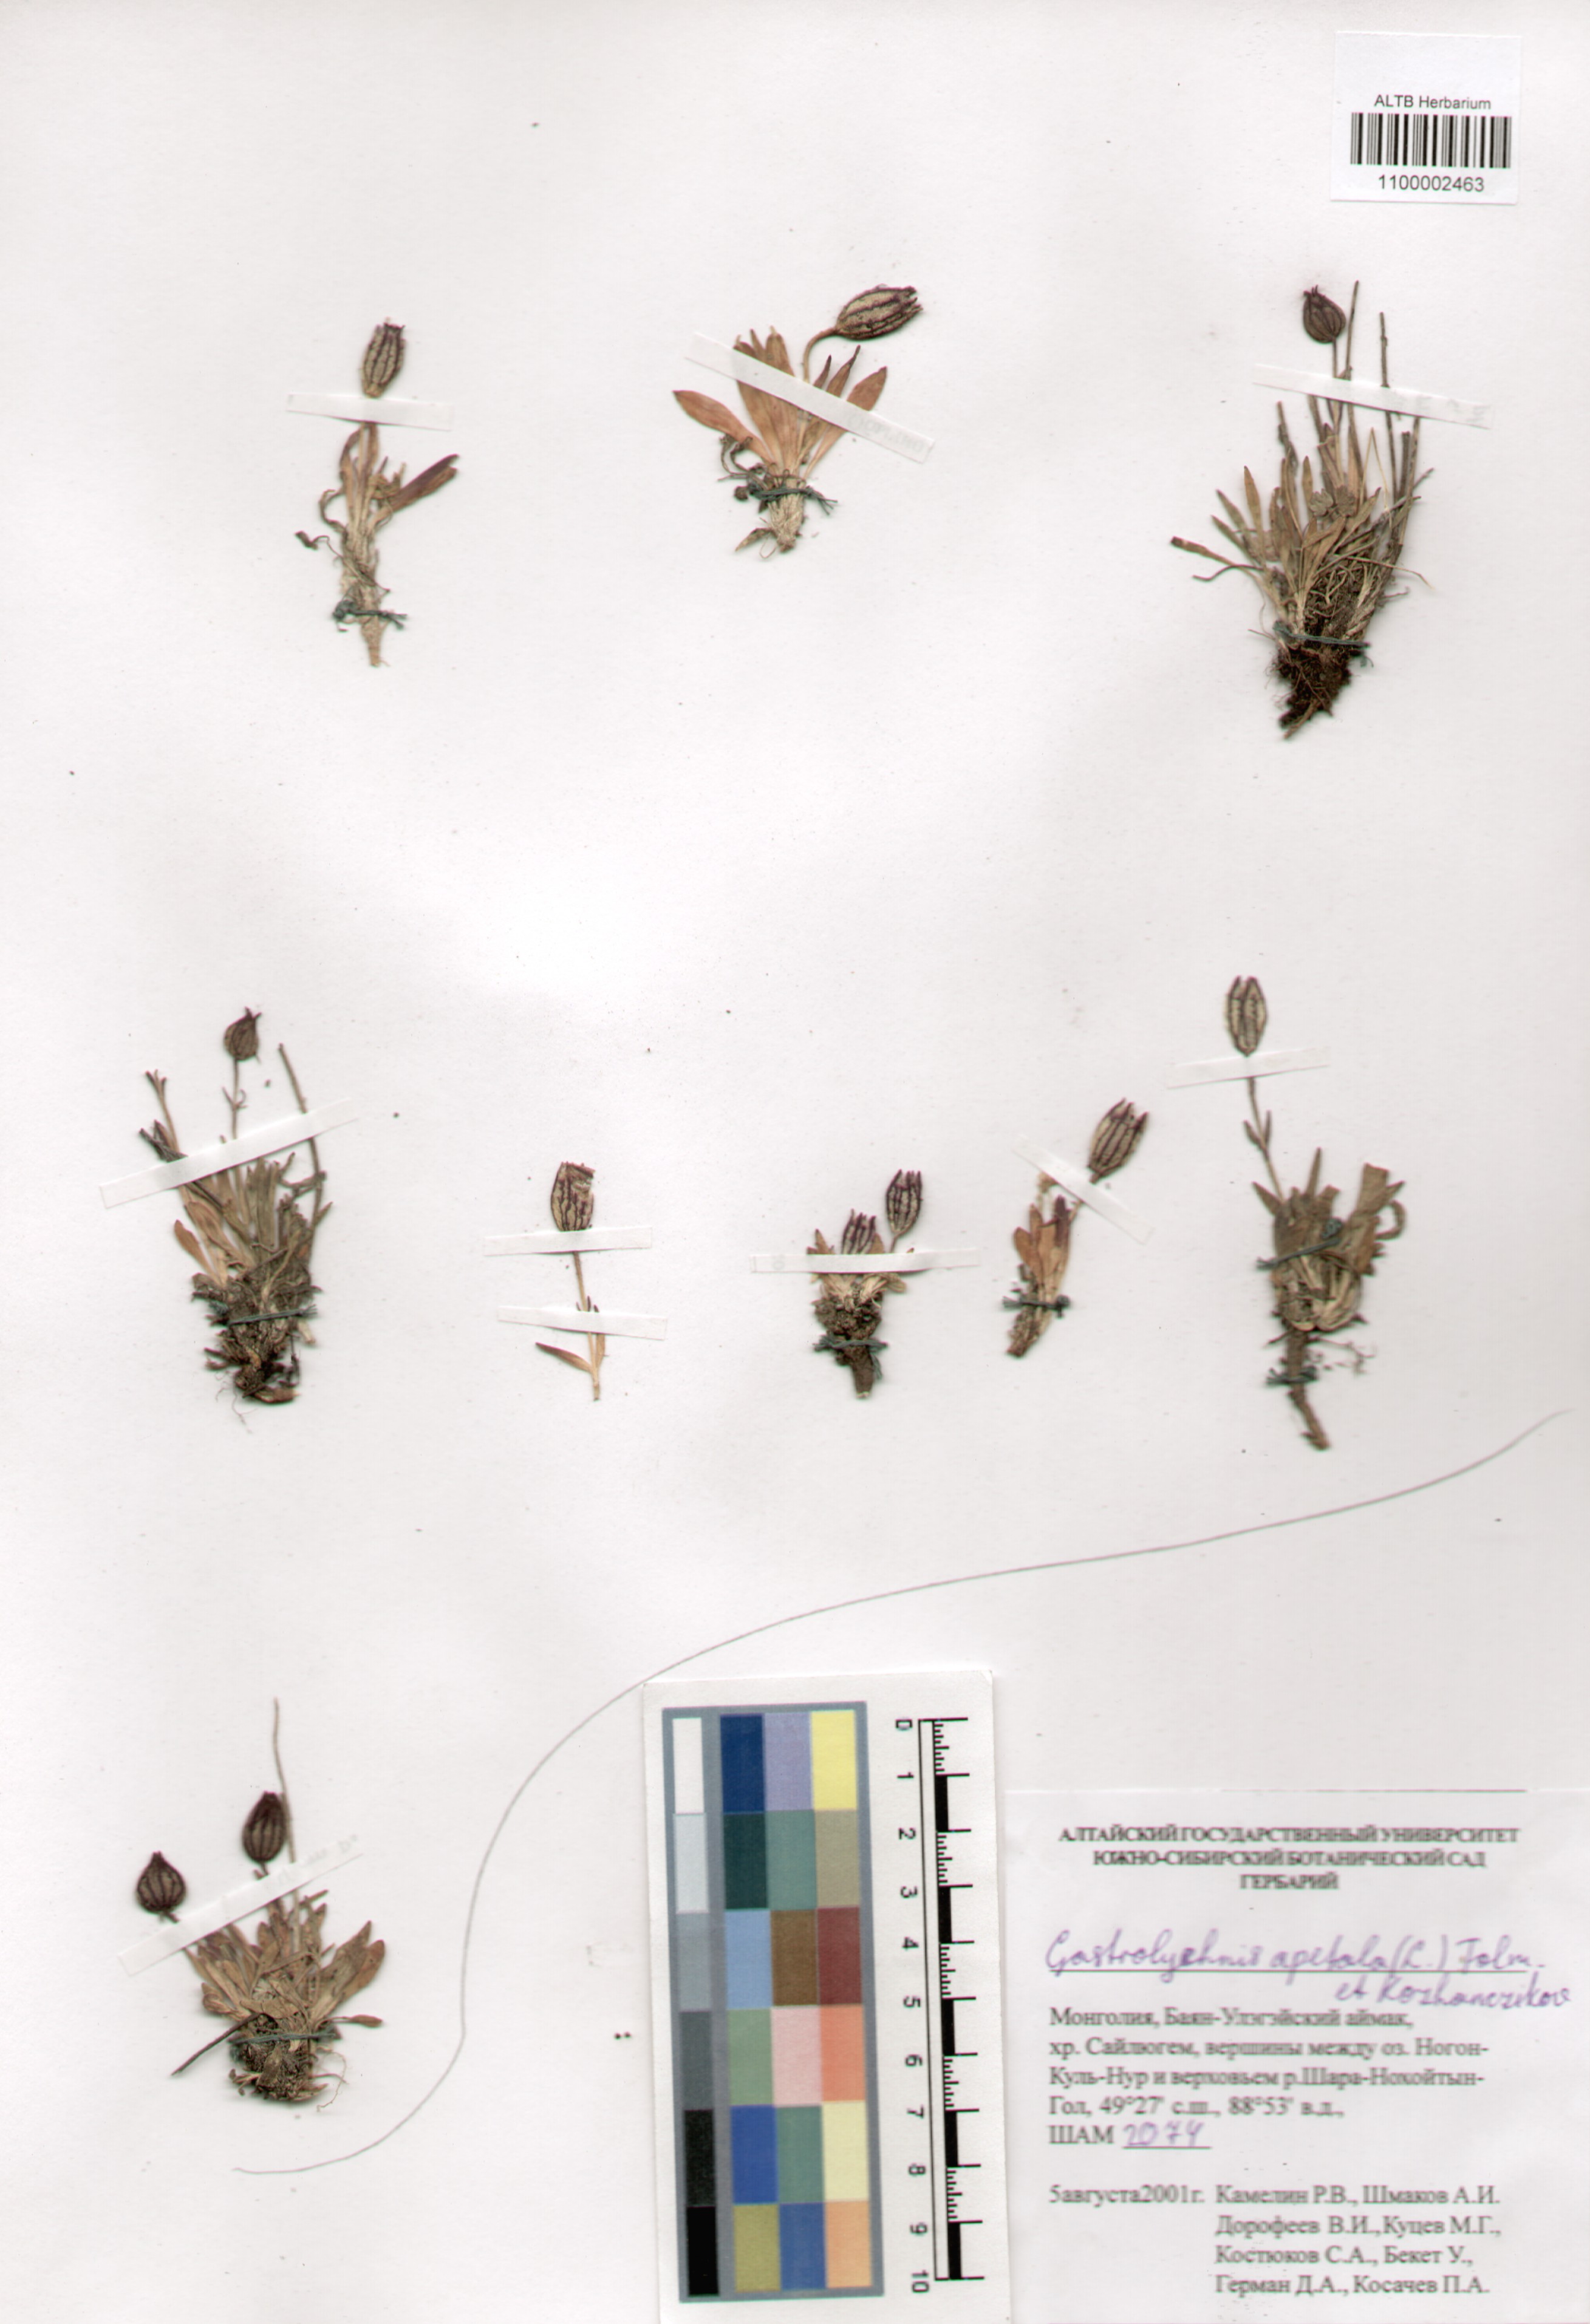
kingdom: Plantae
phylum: Tracheophyta
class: Magnoliopsida
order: Caryophyllales
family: Caryophyllaceae
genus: Silene
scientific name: Silene wahlbergella
